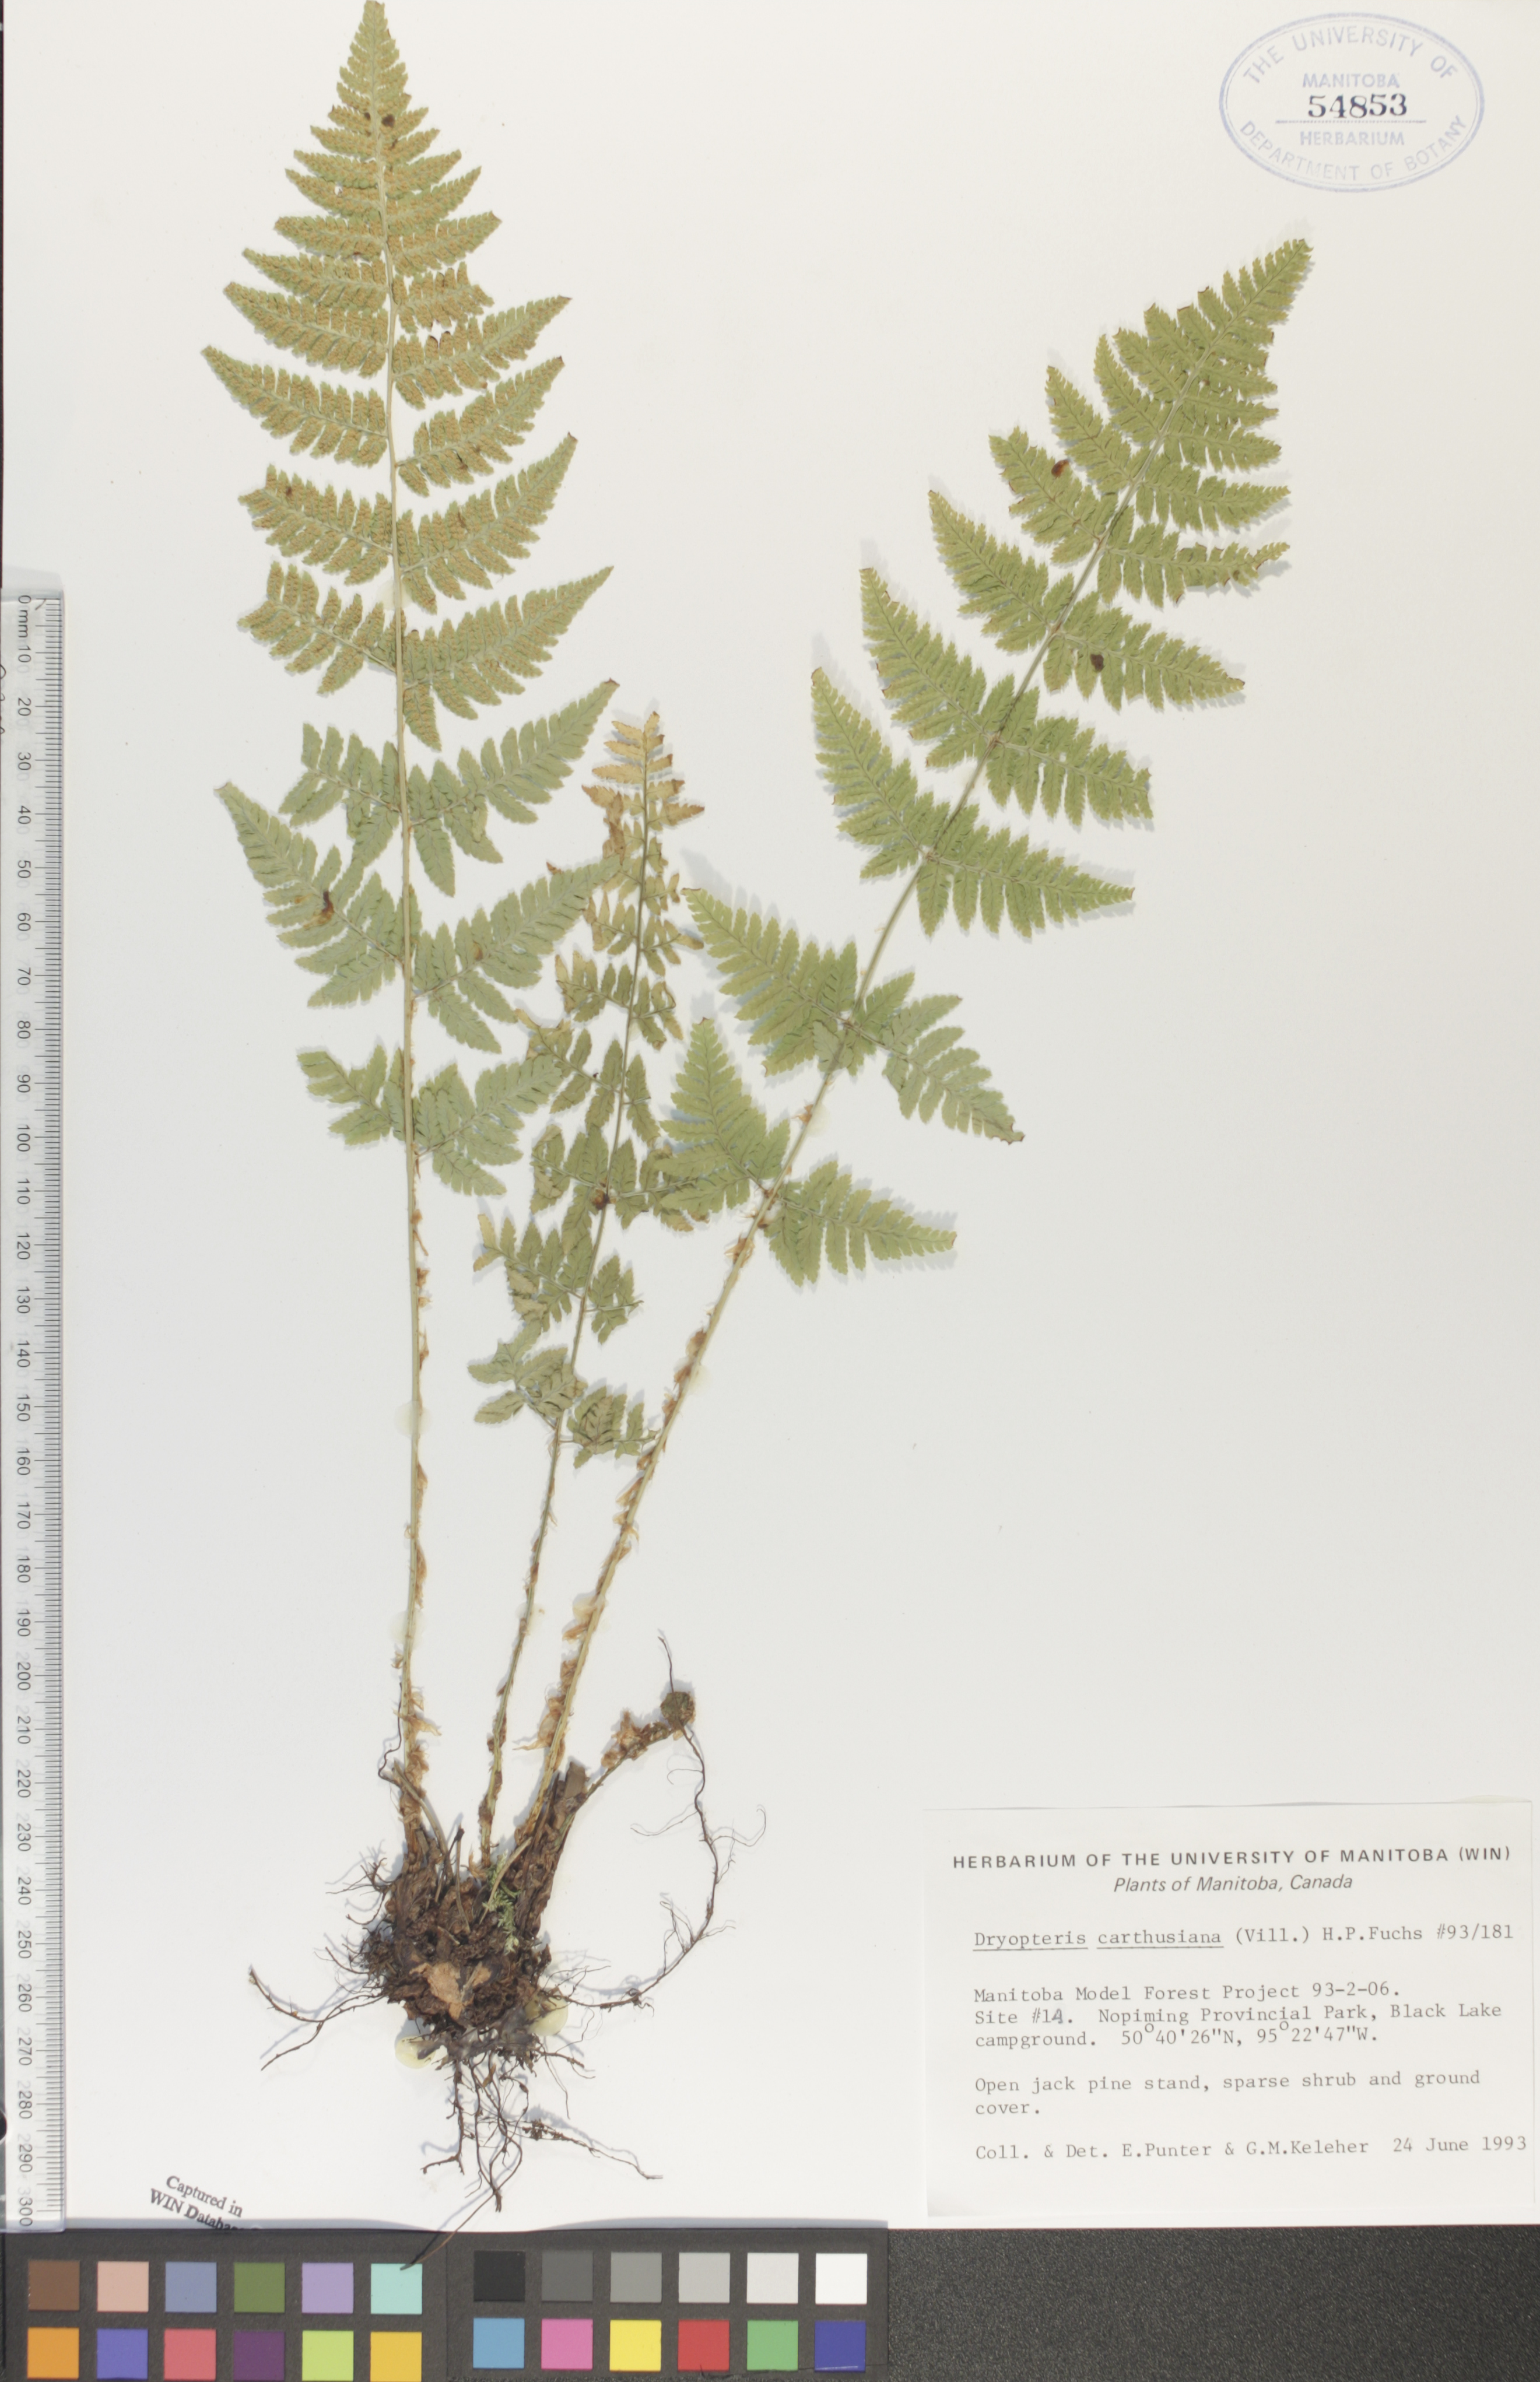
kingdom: Plantae
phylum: Tracheophyta
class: Polypodiopsida
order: Polypodiales
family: Dryopteridaceae
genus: Dryopteris
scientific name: Dryopteris carthusiana
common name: Narrow buckler-fern
